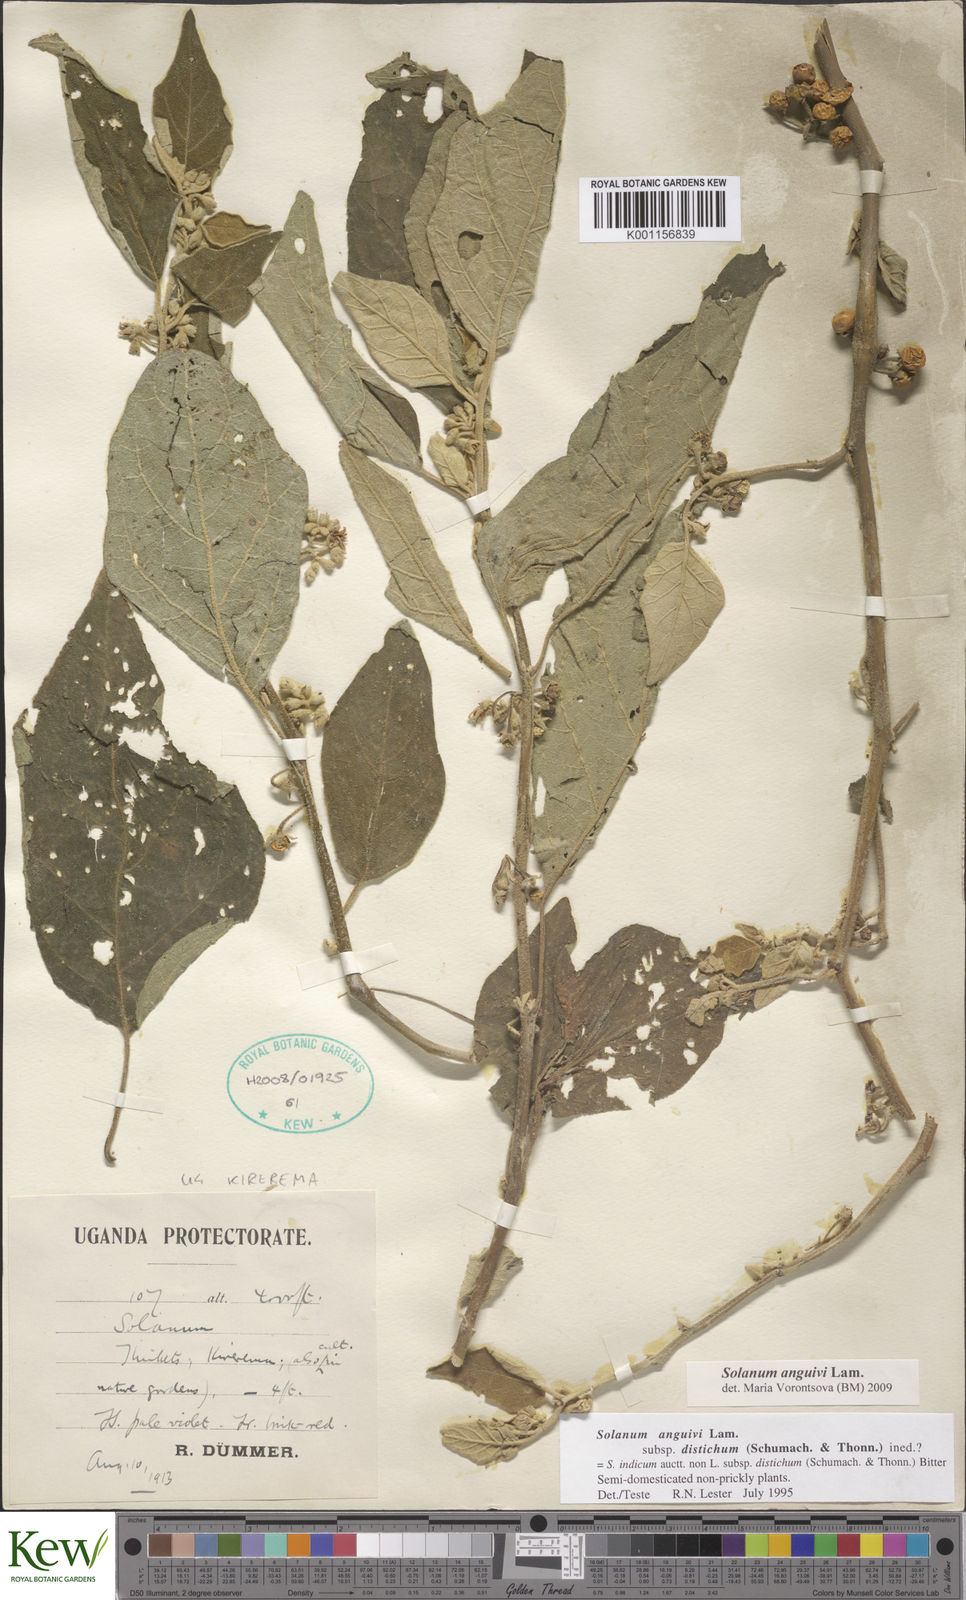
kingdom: Plantae
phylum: Tracheophyta
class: Magnoliopsida
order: Solanales
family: Solanaceae
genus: Solanum
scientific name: Solanum anguivi
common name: Forest bitterberry
